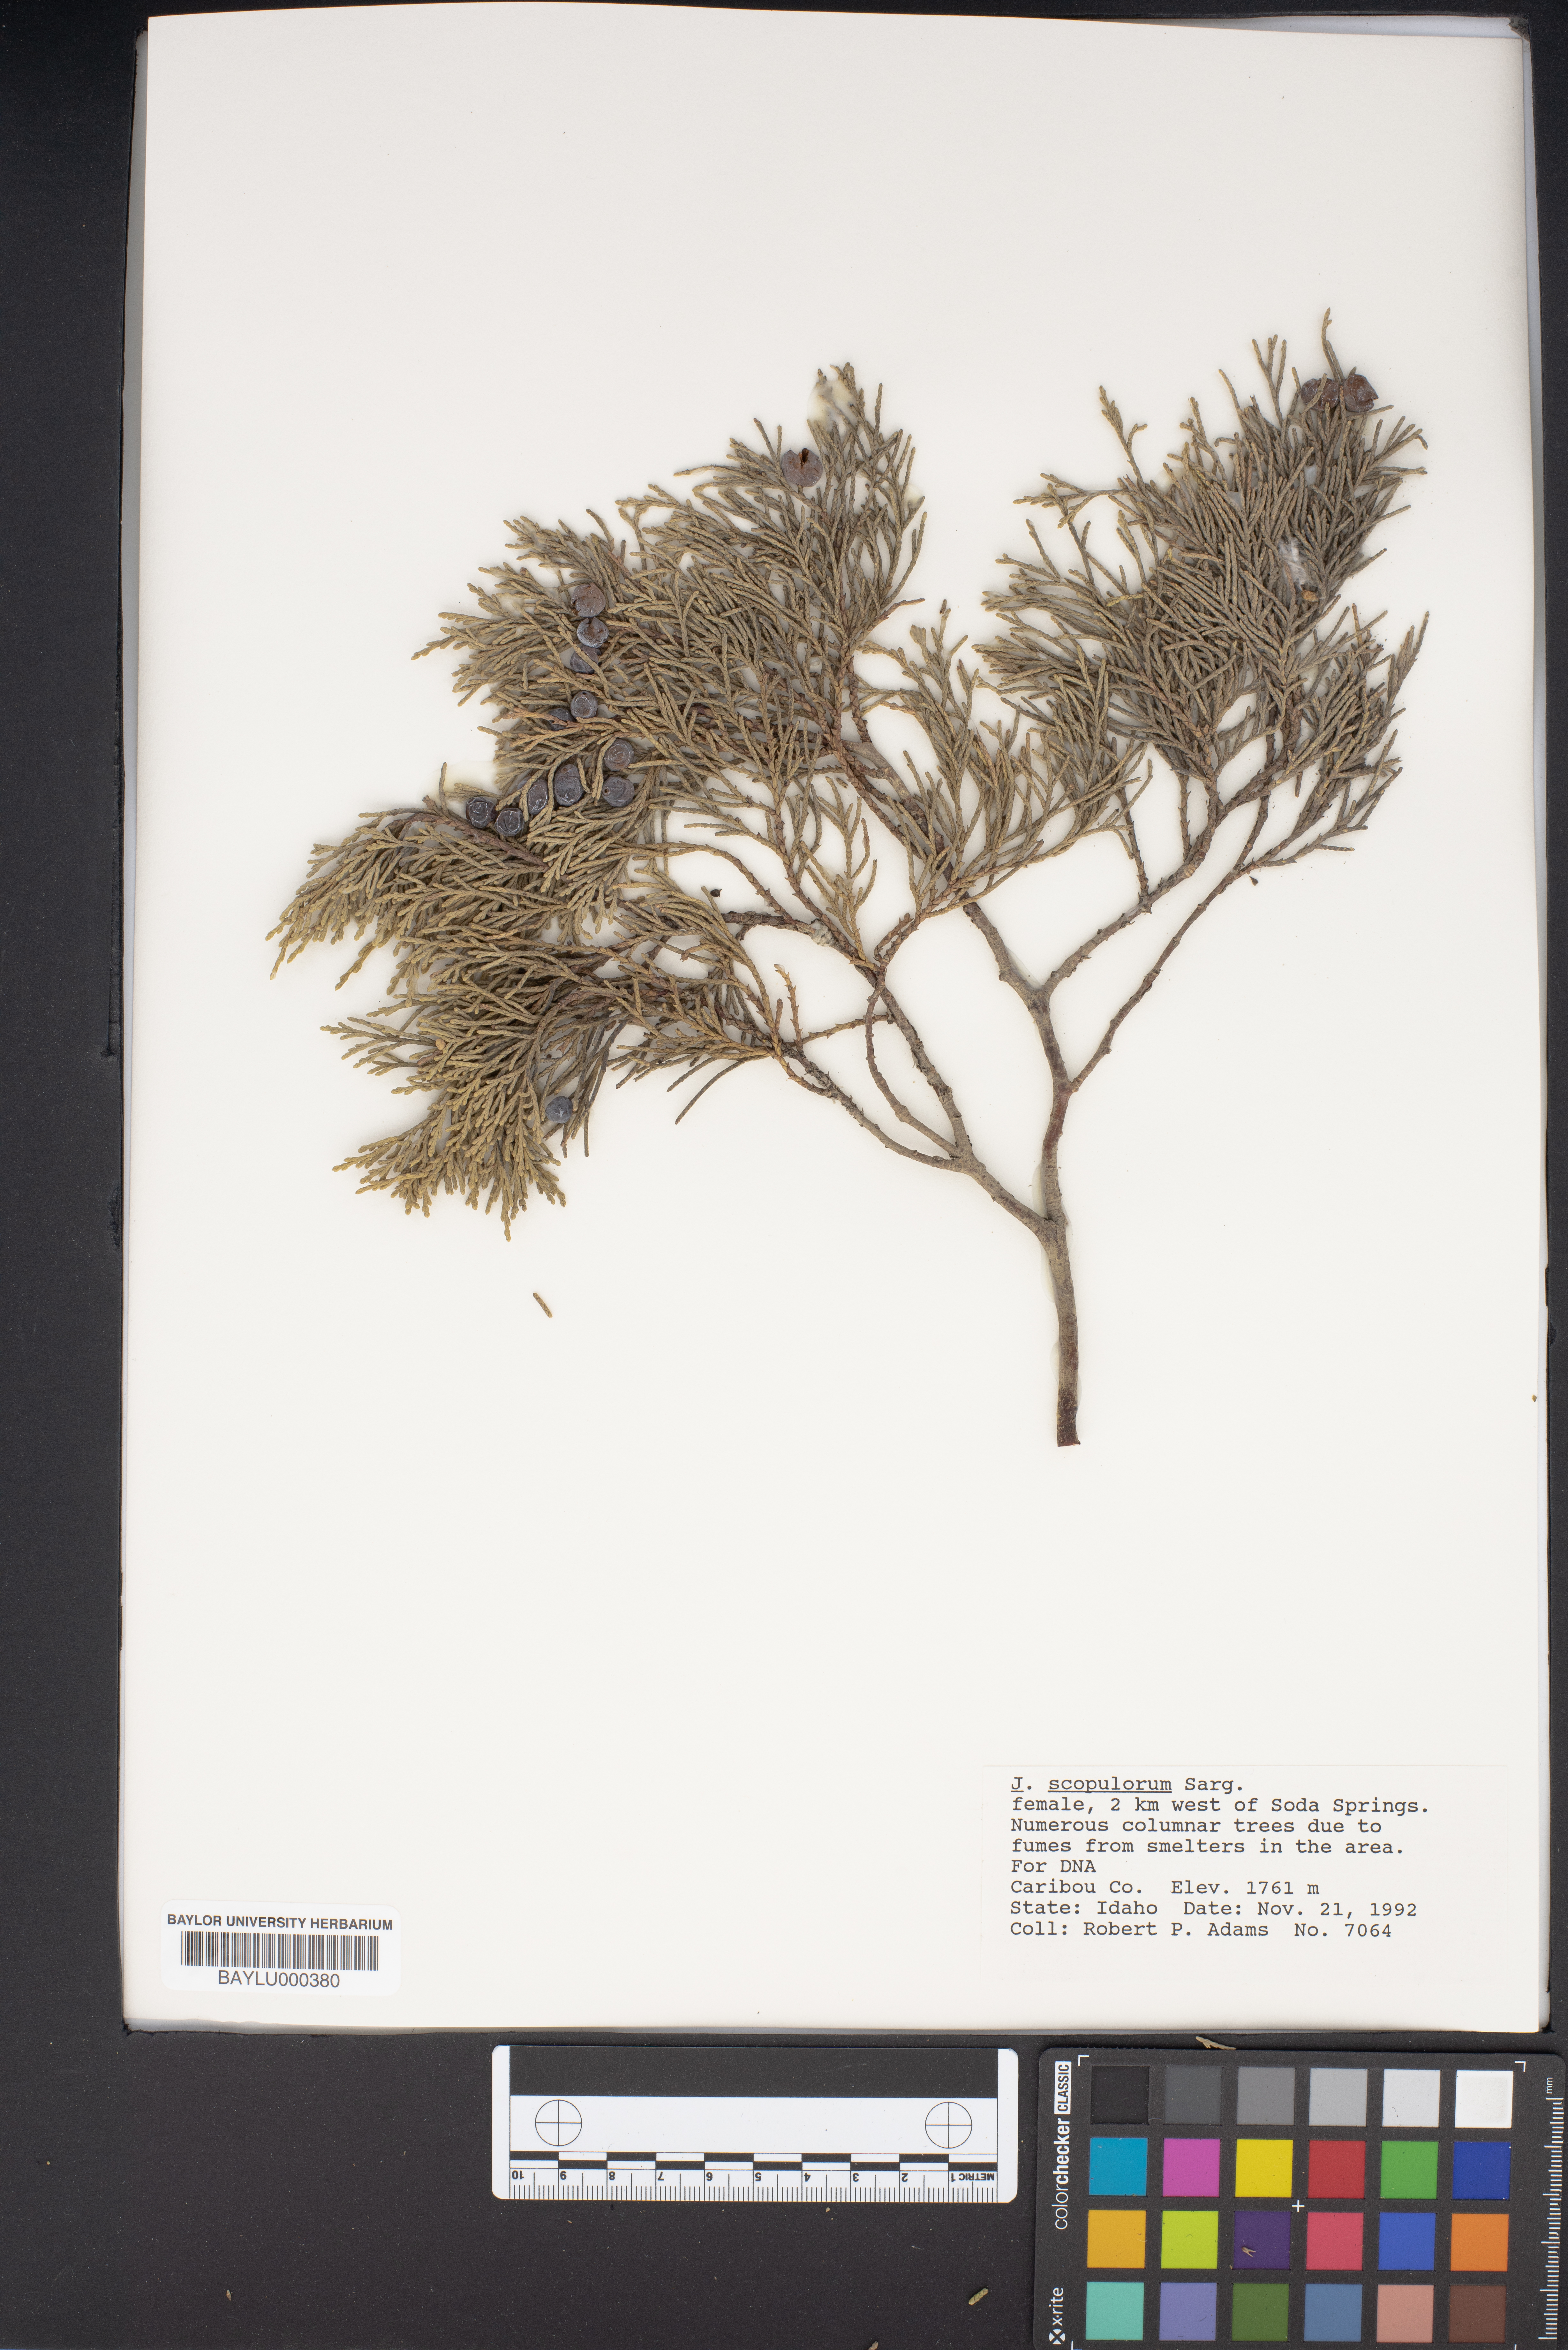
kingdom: Plantae
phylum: Tracheophyta
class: Pinopsida
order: Pinales
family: Cupressaceae
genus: Juniperus
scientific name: Juniperus scopulorum
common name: Rocky mountain juniper
